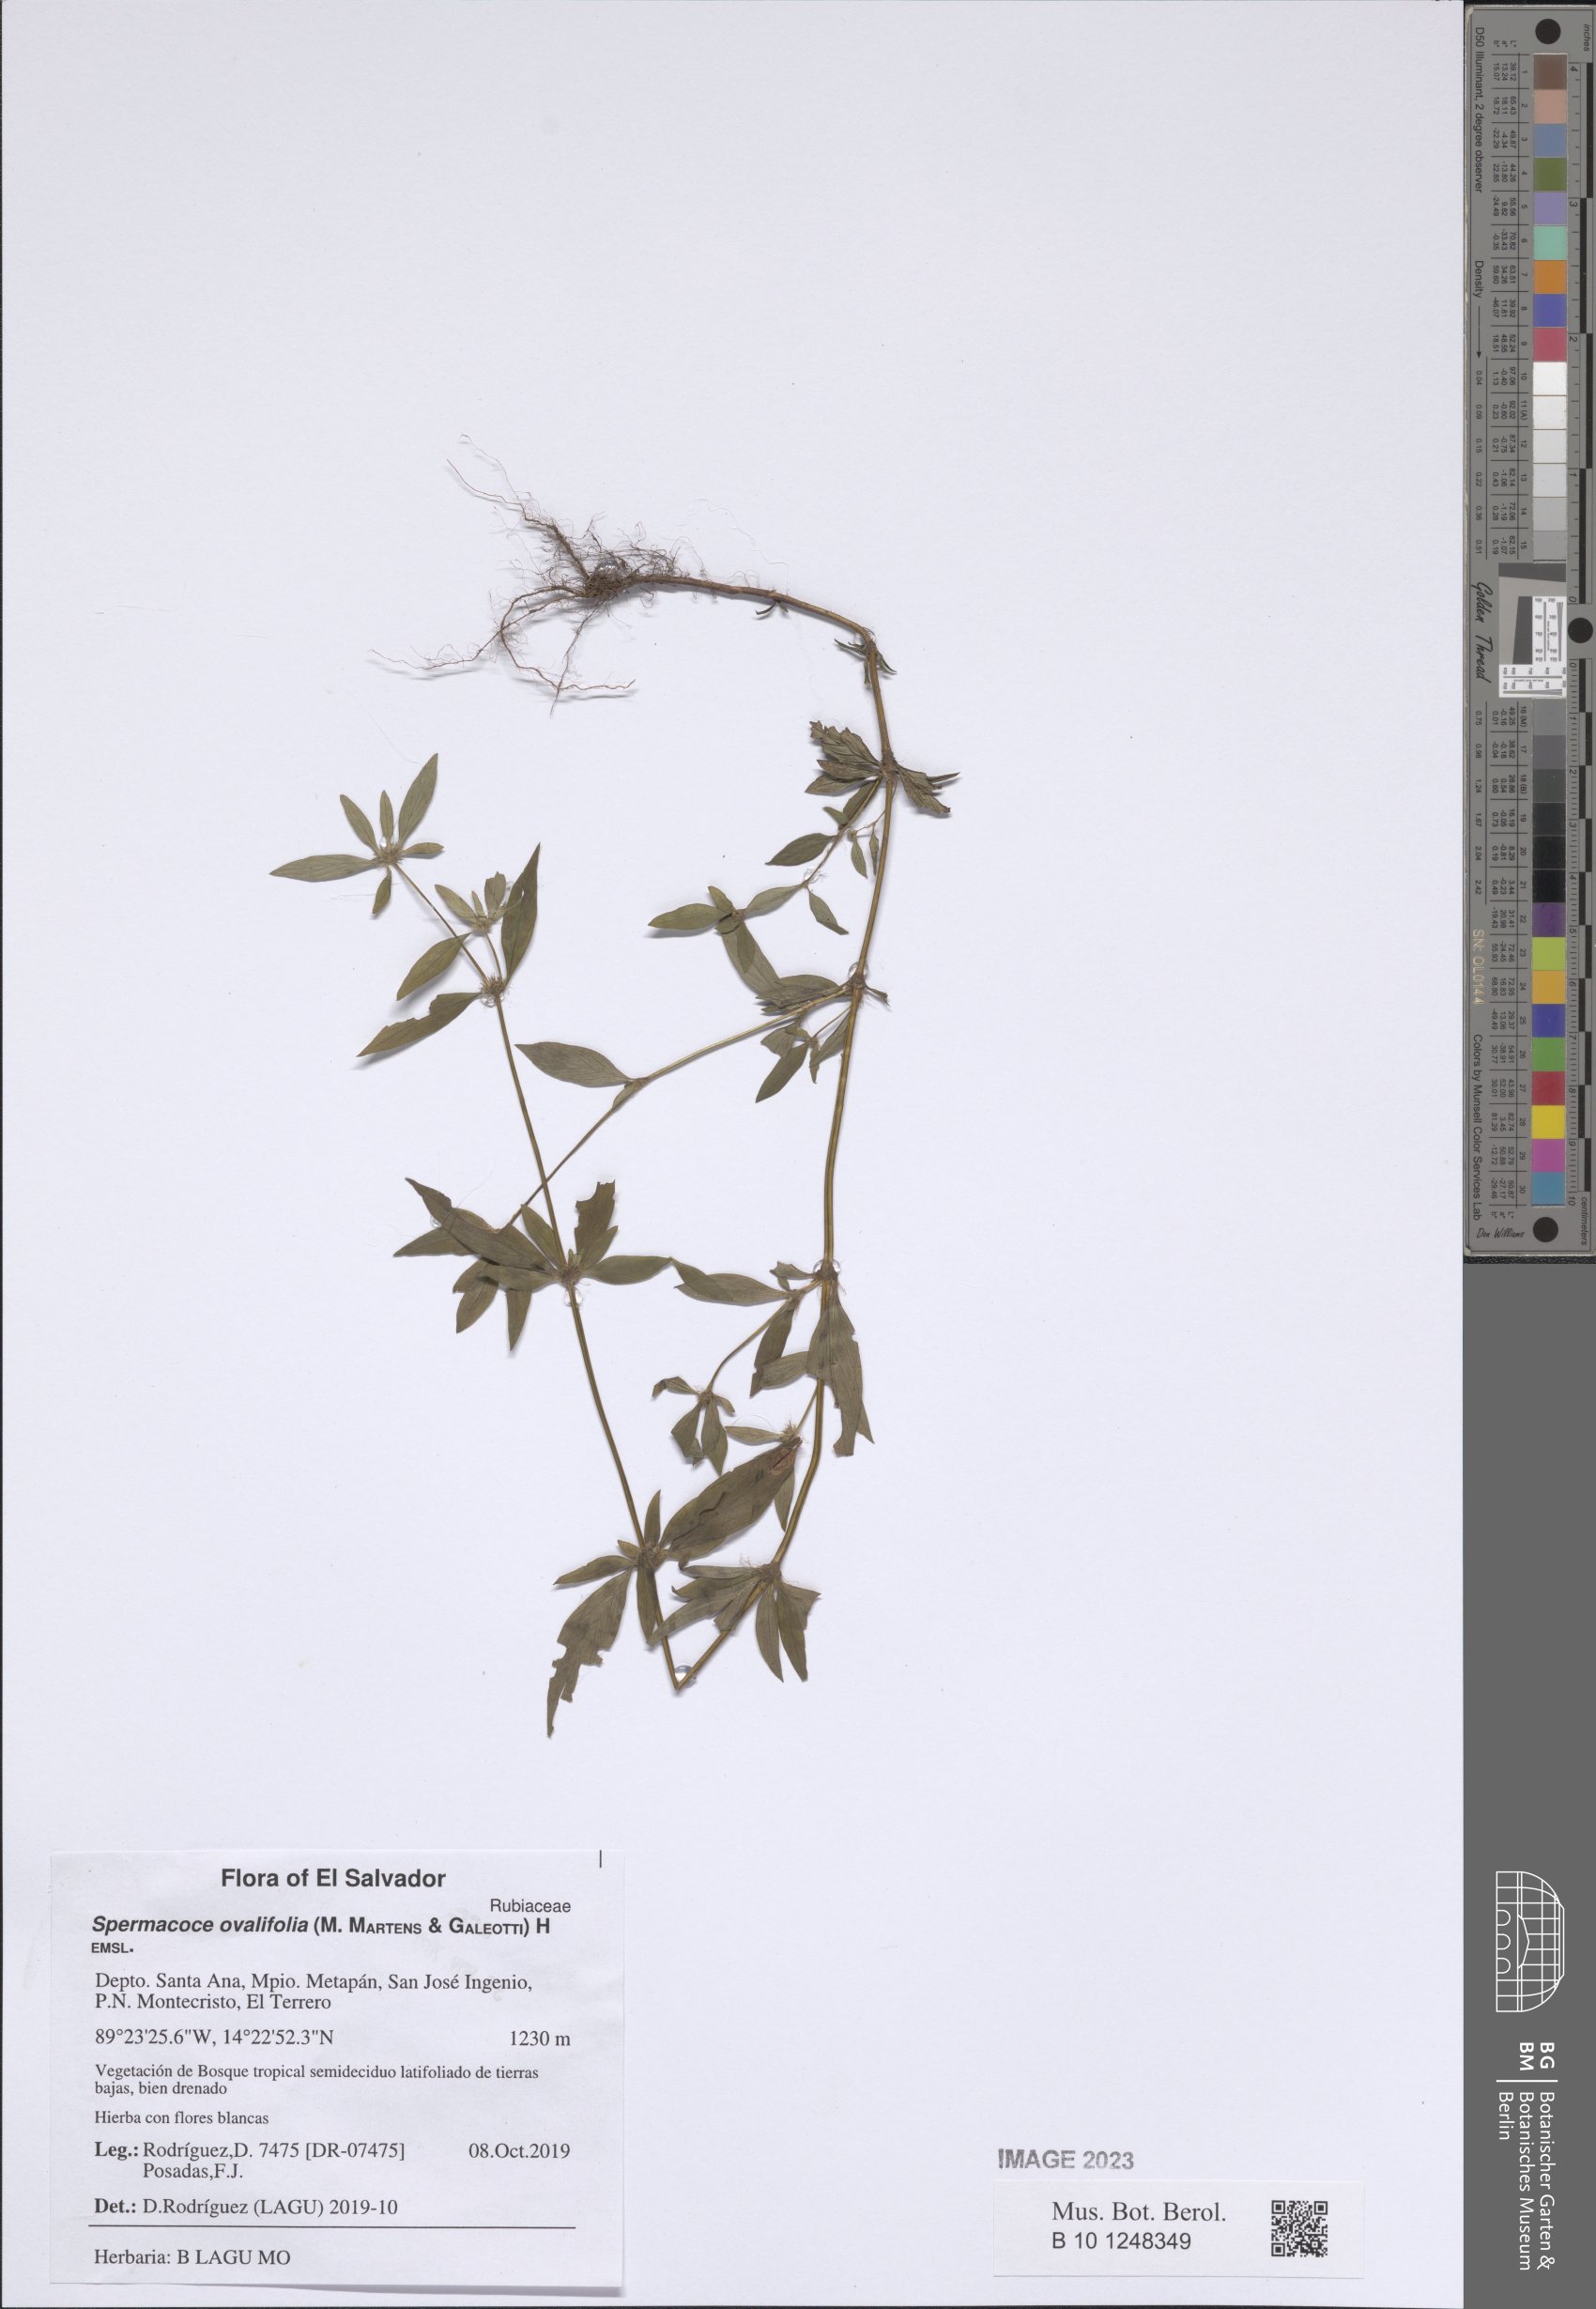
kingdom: Plantae
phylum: Tracheophyta
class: Magnoliopsida
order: Gentianales
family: Rubiaceae
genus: Spermacoce
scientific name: Spermacoce ovalifolia
